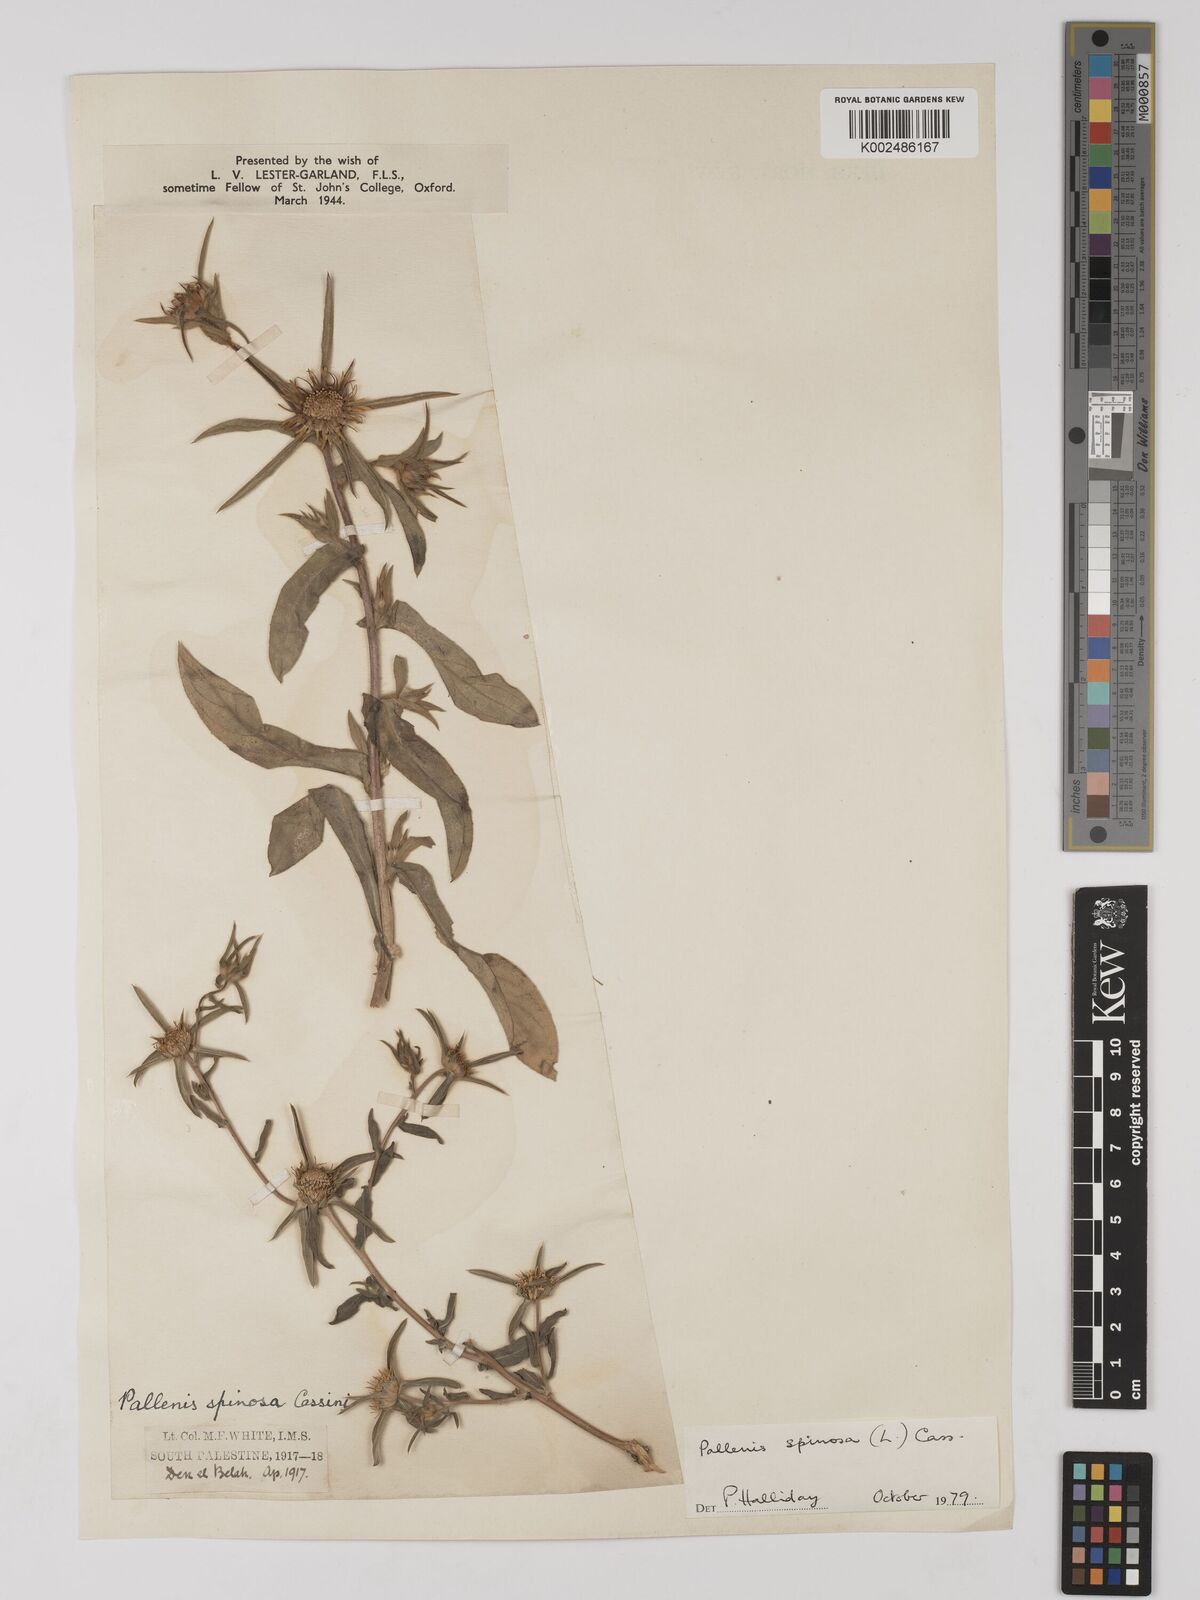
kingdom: Plantae
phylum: Tracheophyta
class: Magnoliopsida
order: Asterales
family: Asteraceae
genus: Pallenis
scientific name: Pallenis spinosa
